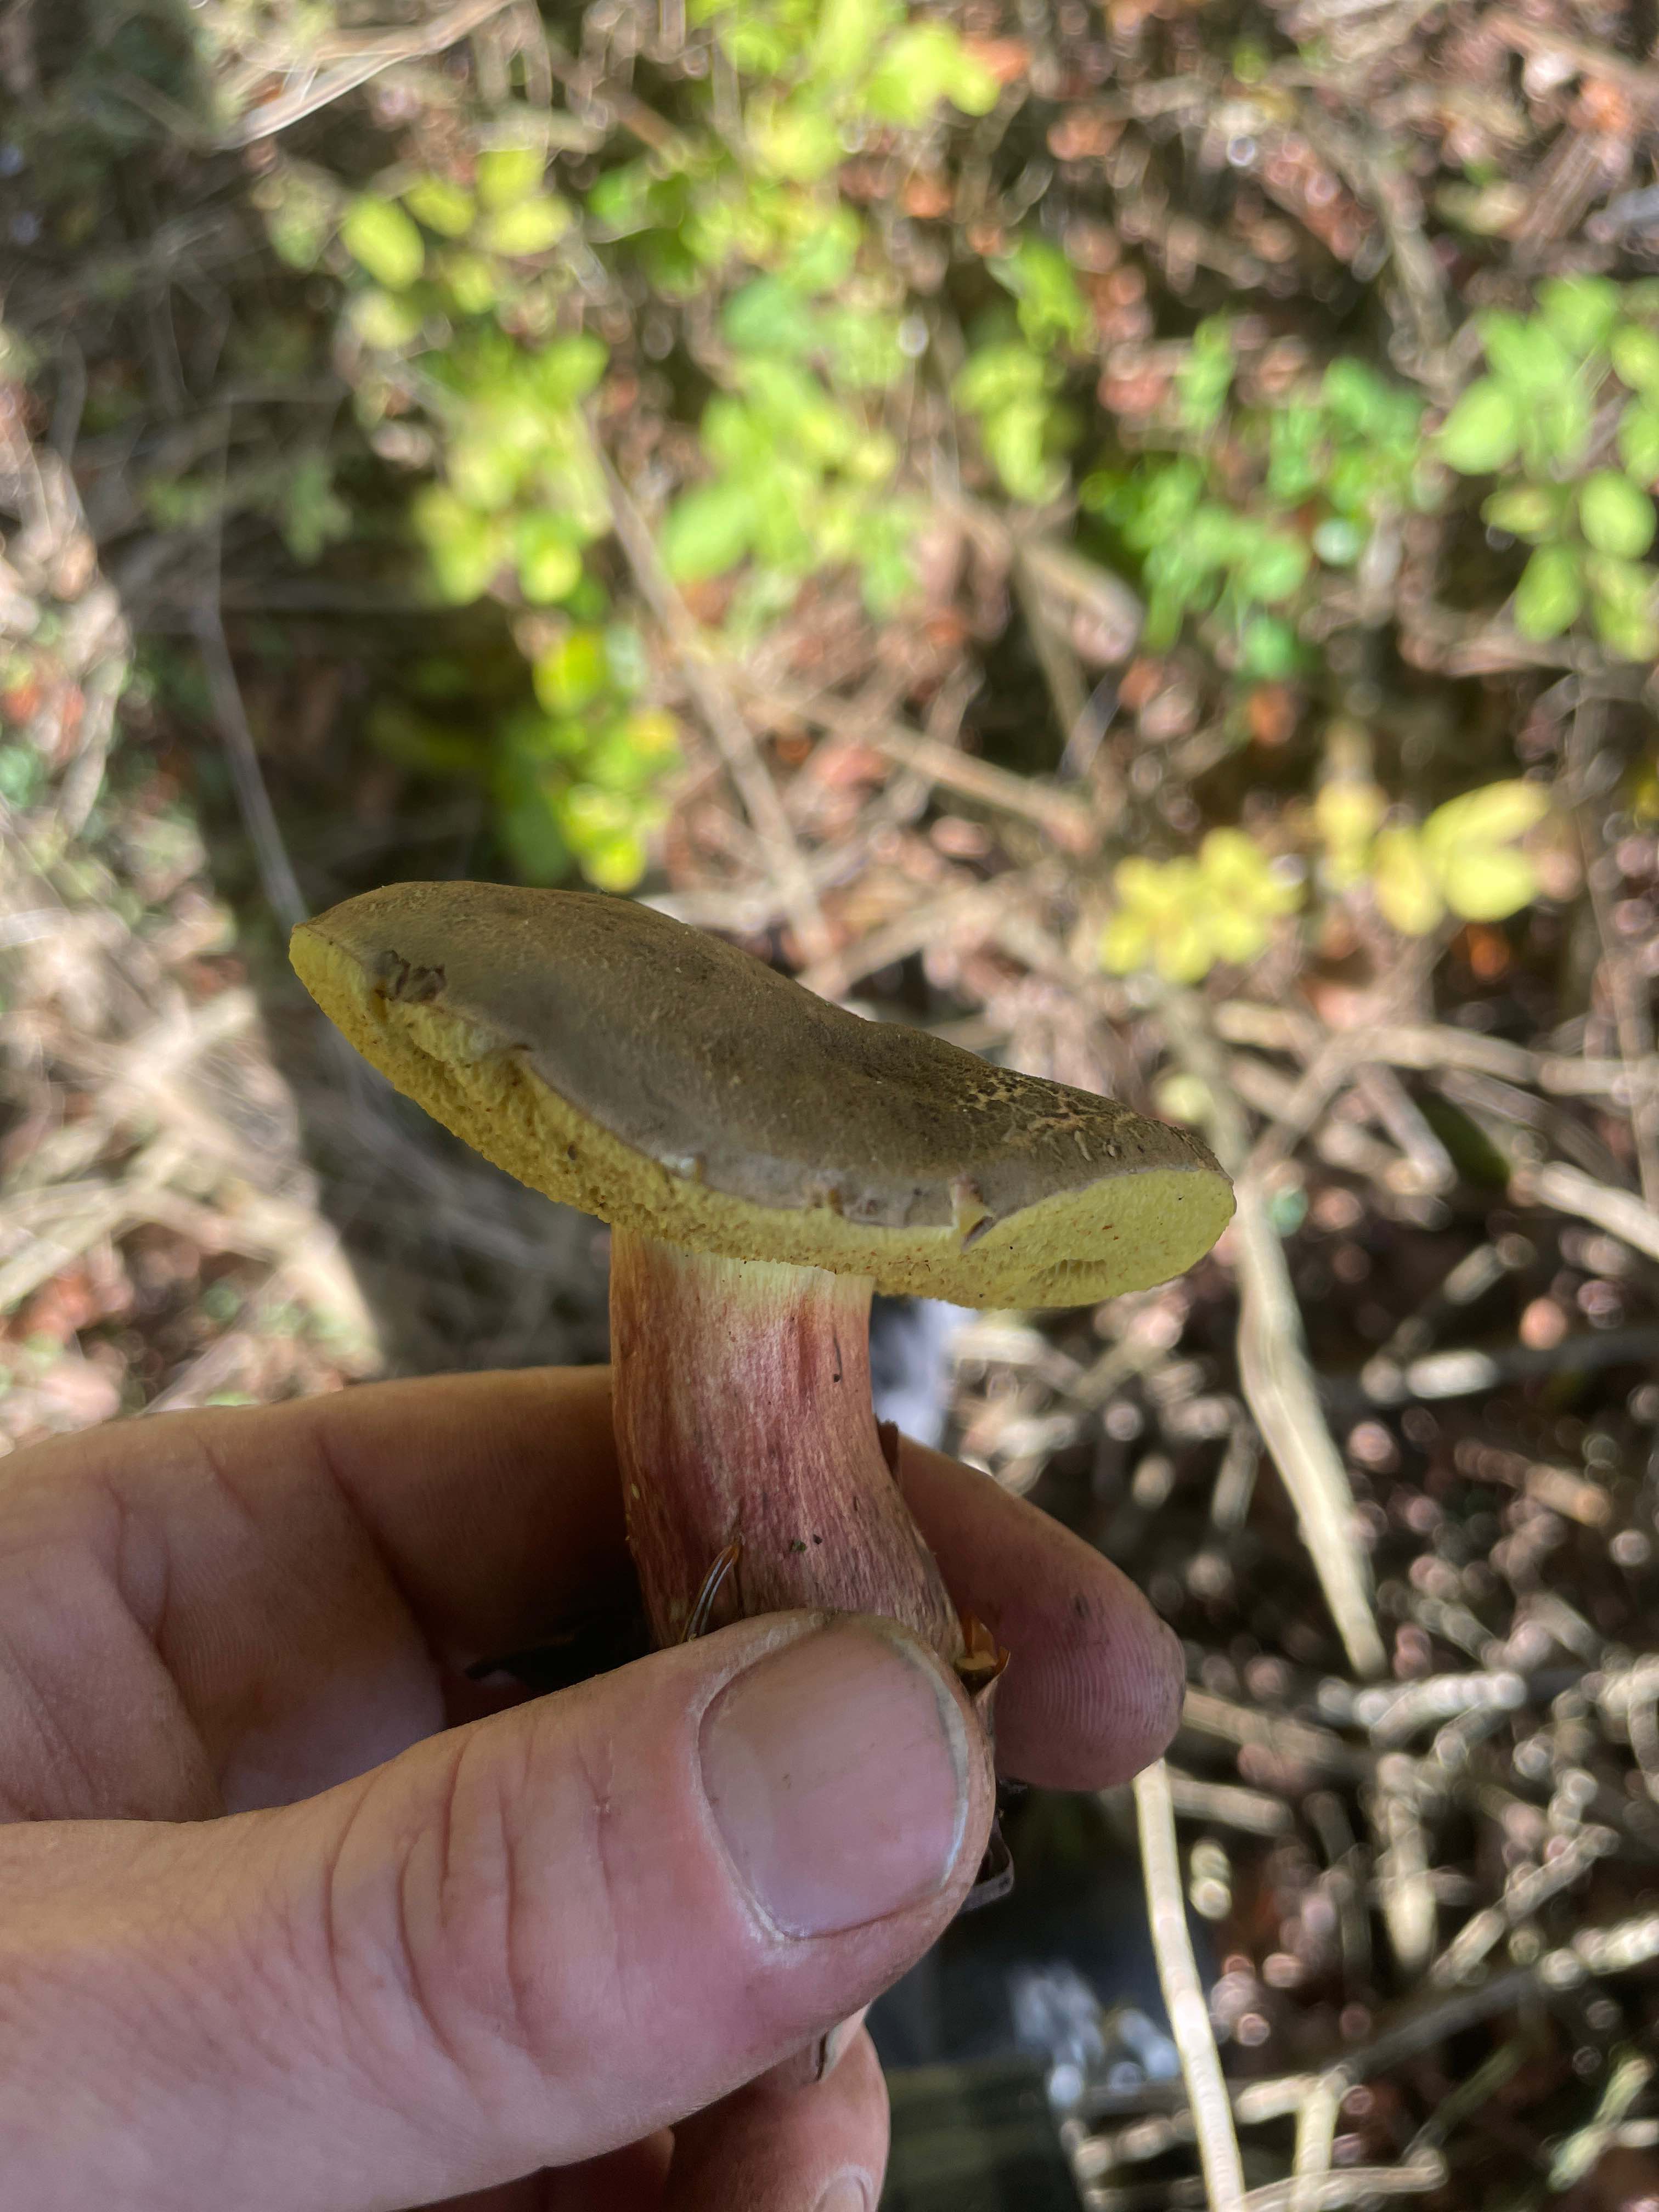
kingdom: Fungi
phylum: Basidiomycota
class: Agaricomycetes
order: Boletales
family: Boletaceae
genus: Xerocomellus
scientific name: Xerocomellus
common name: dværgrørhat
